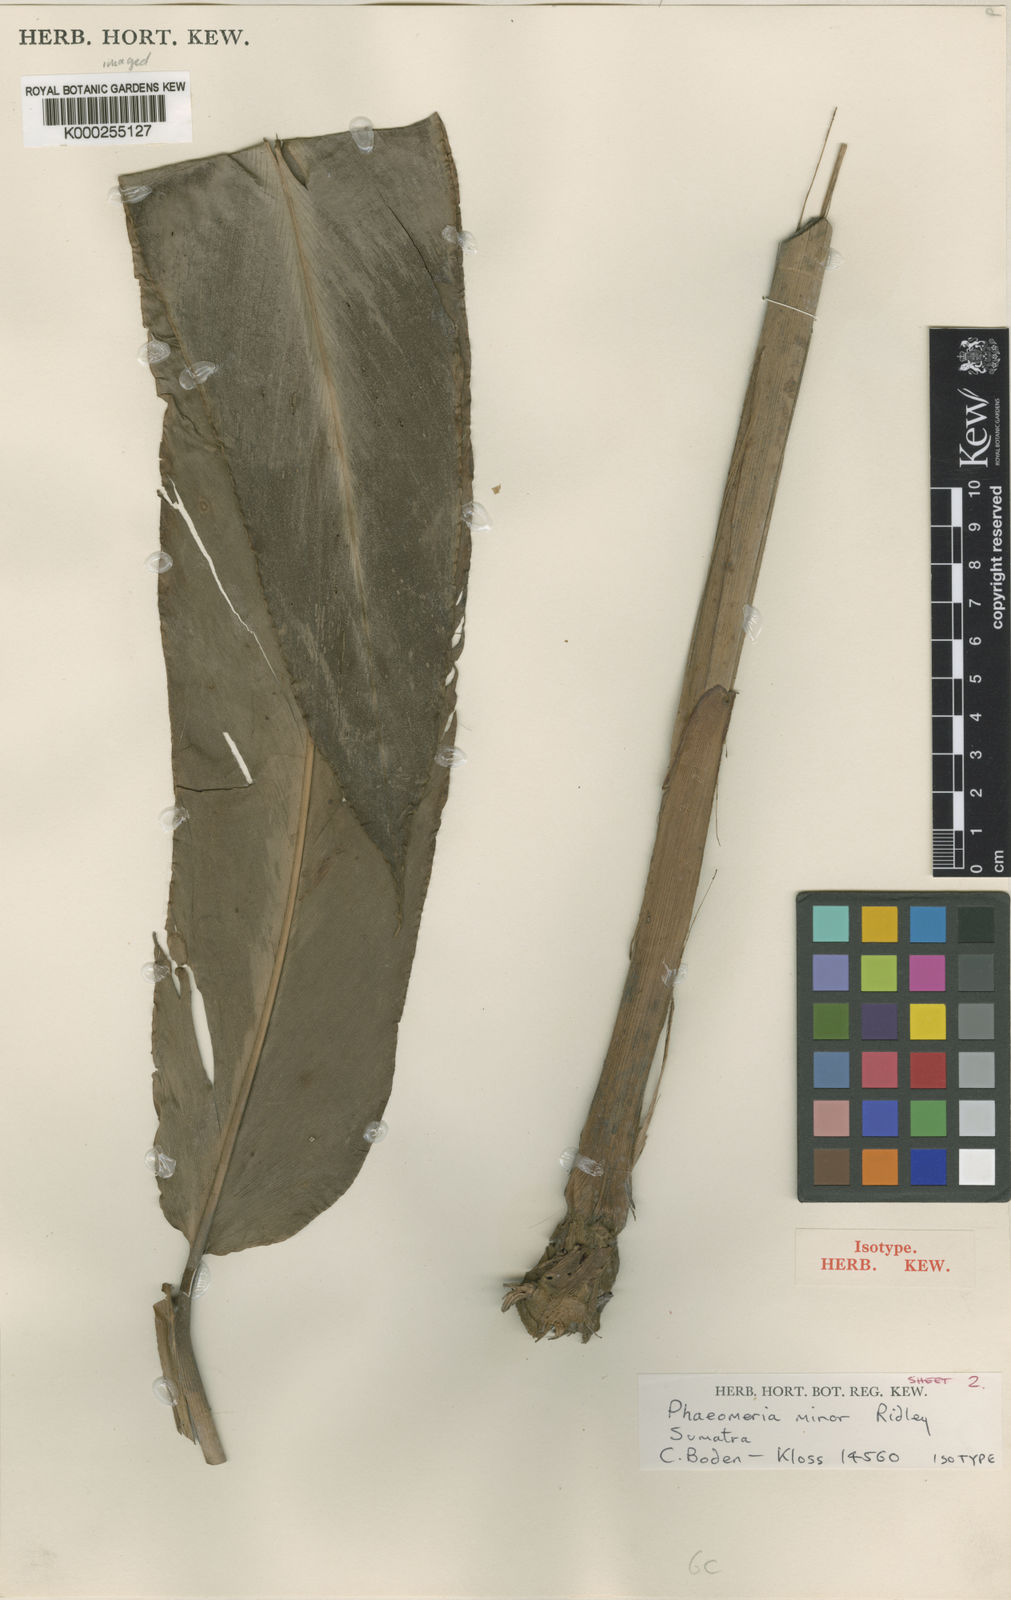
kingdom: Plantae
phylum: Tracheophyta
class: Liliopsida
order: Zingiberales
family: Zingiberaceae
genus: Etlingera
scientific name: Etlingera minor
